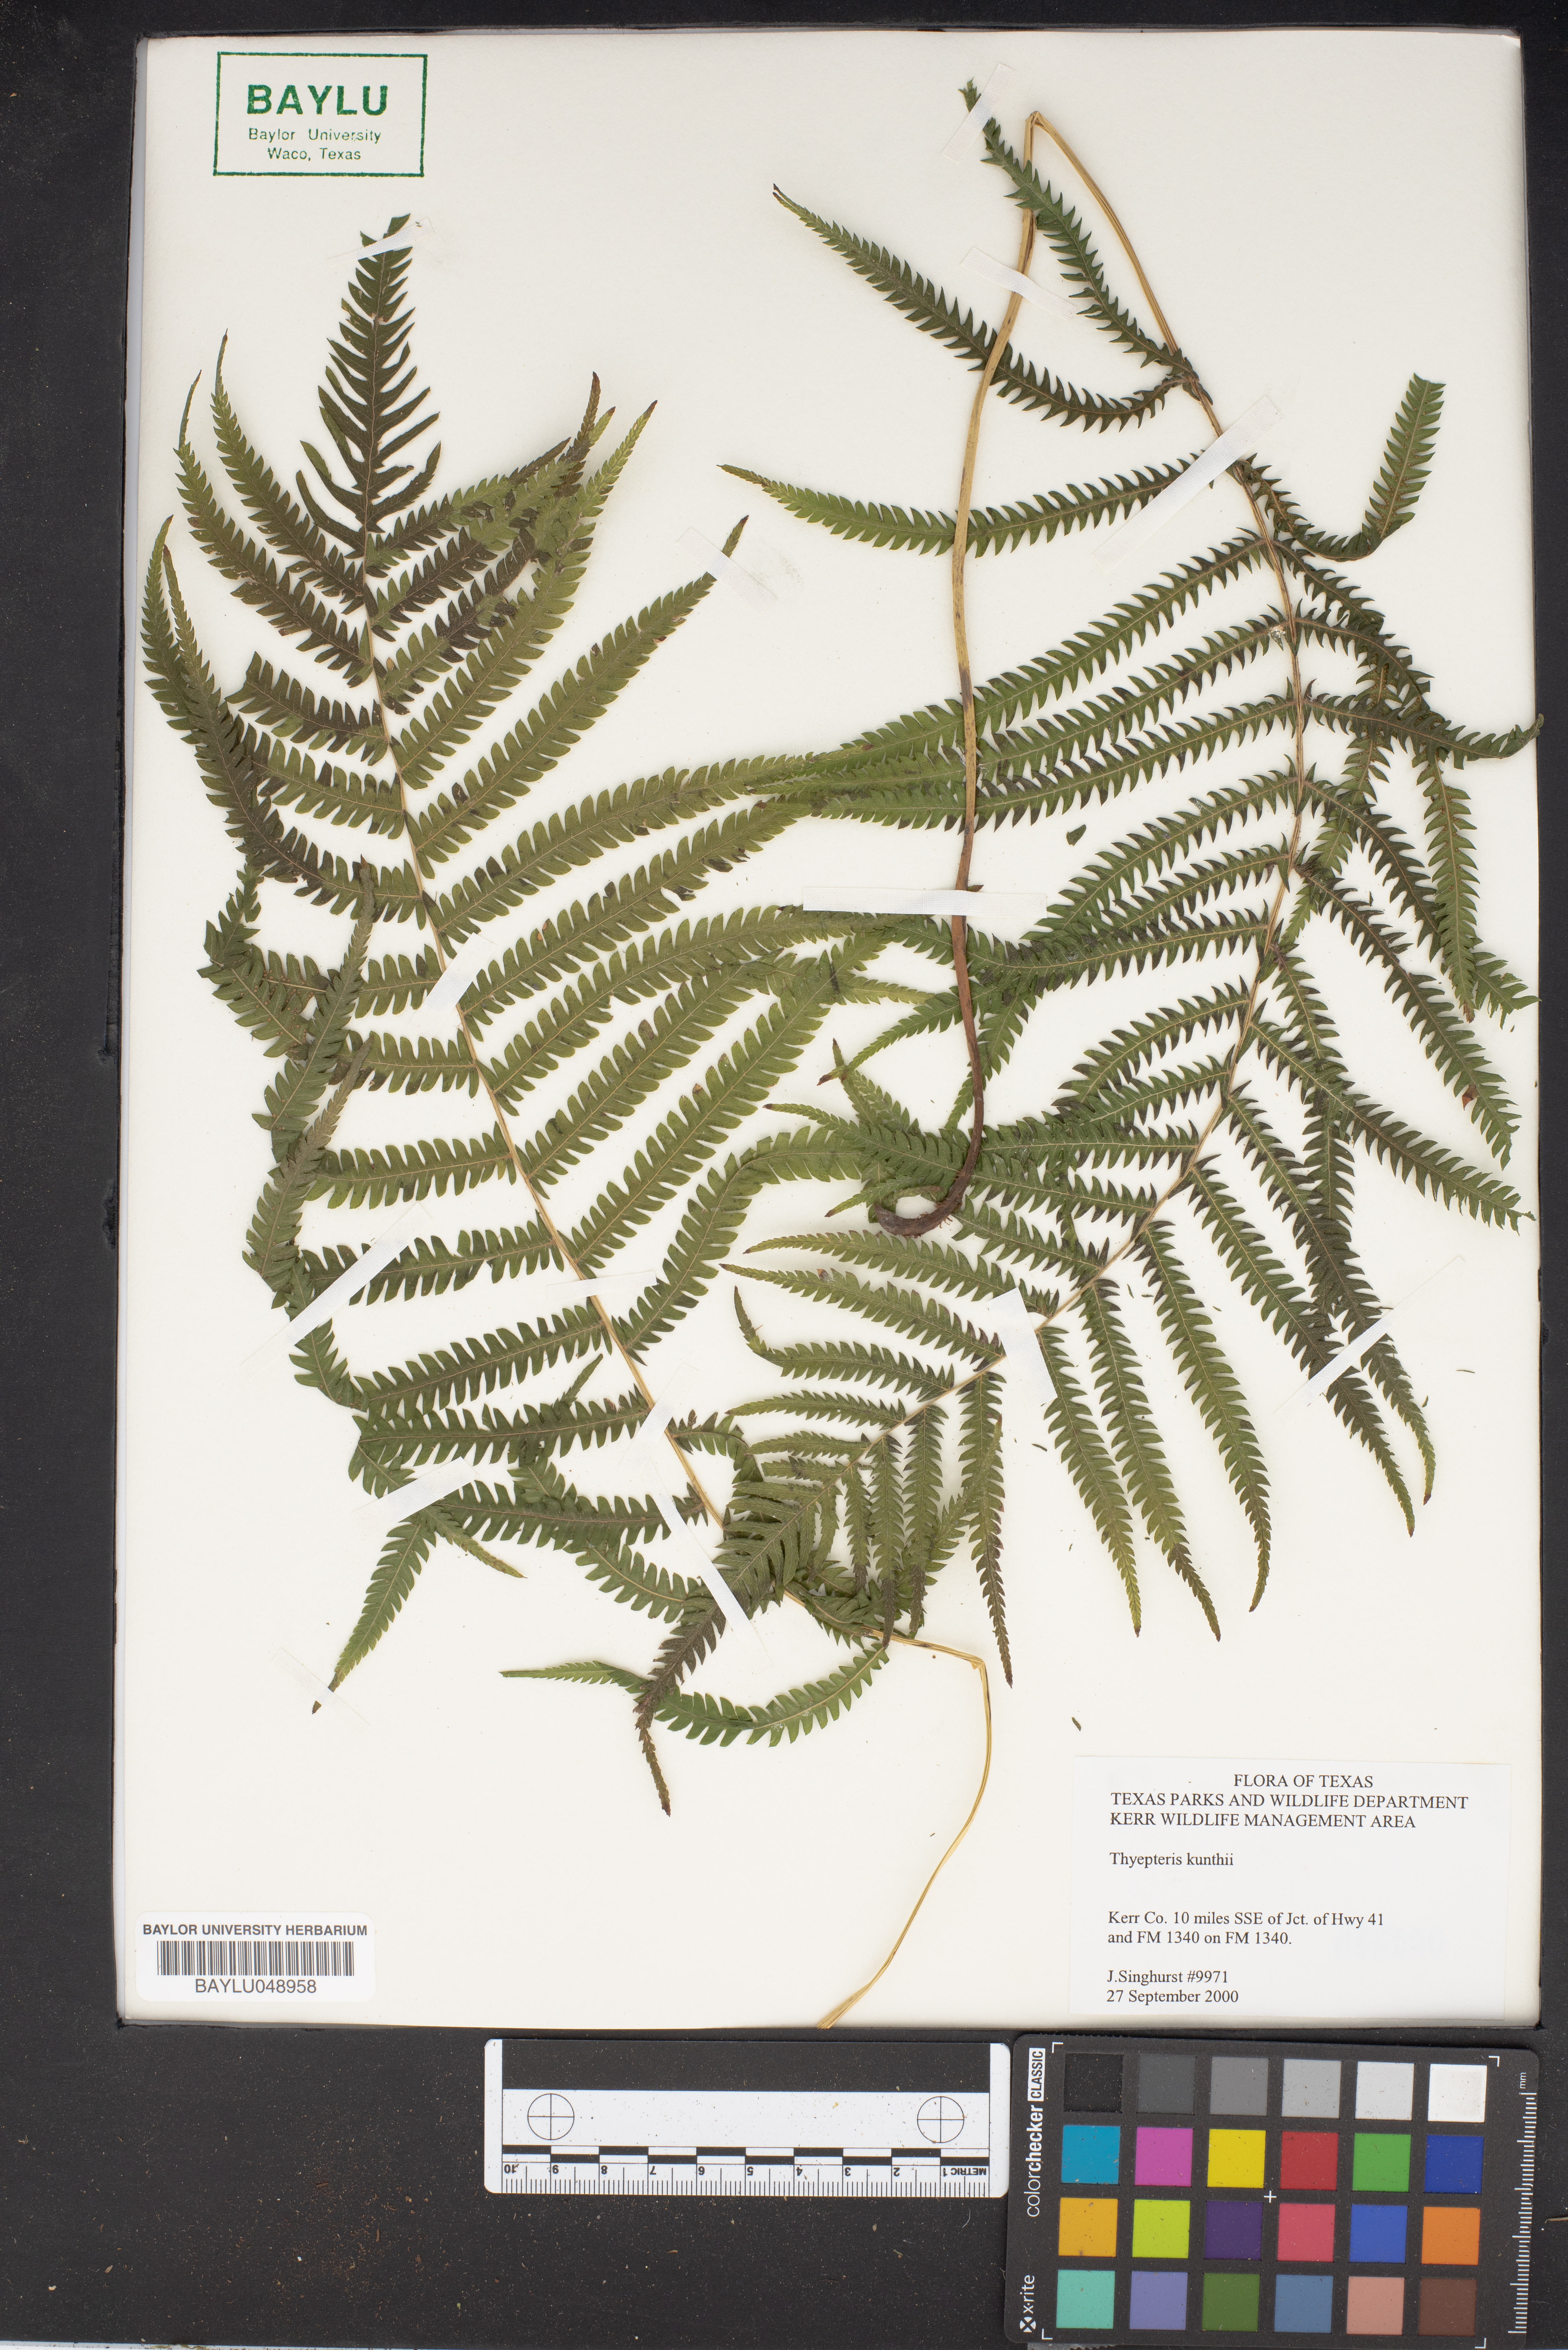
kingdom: Plantae
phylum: Tracheophyta
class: Polypodiopsida
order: Polypodiales
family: Thelypteridaceae
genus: Pelazoneuron
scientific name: Pelazoneuron kunthii
